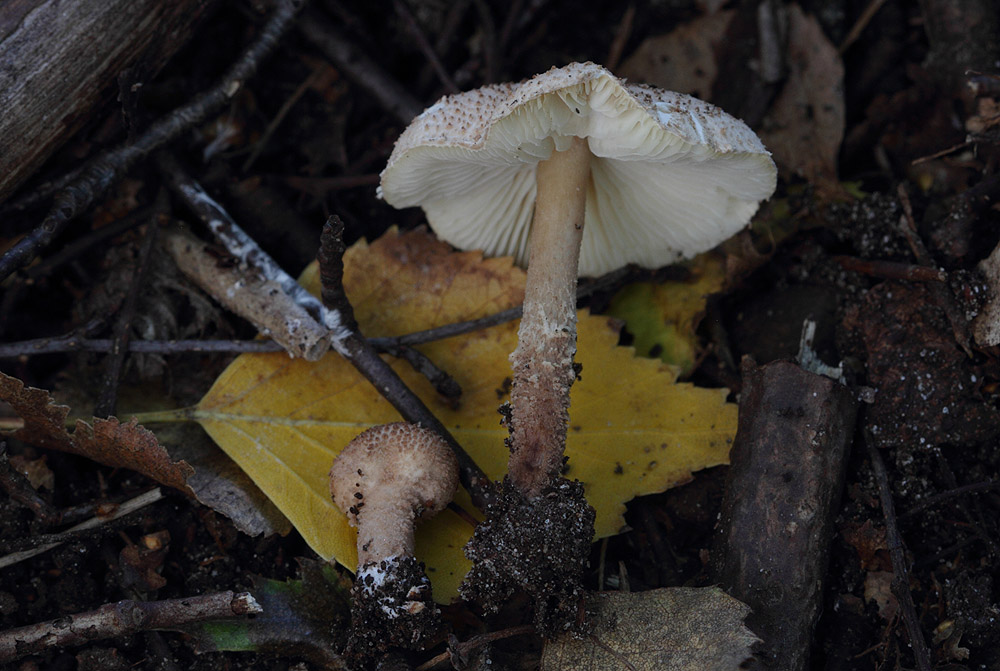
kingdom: Fungi
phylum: Basidiomycota
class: Agaricomycetes
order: Agaricales
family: Agaricaceae
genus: Echinoderma
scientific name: Echinoderma jacobi
